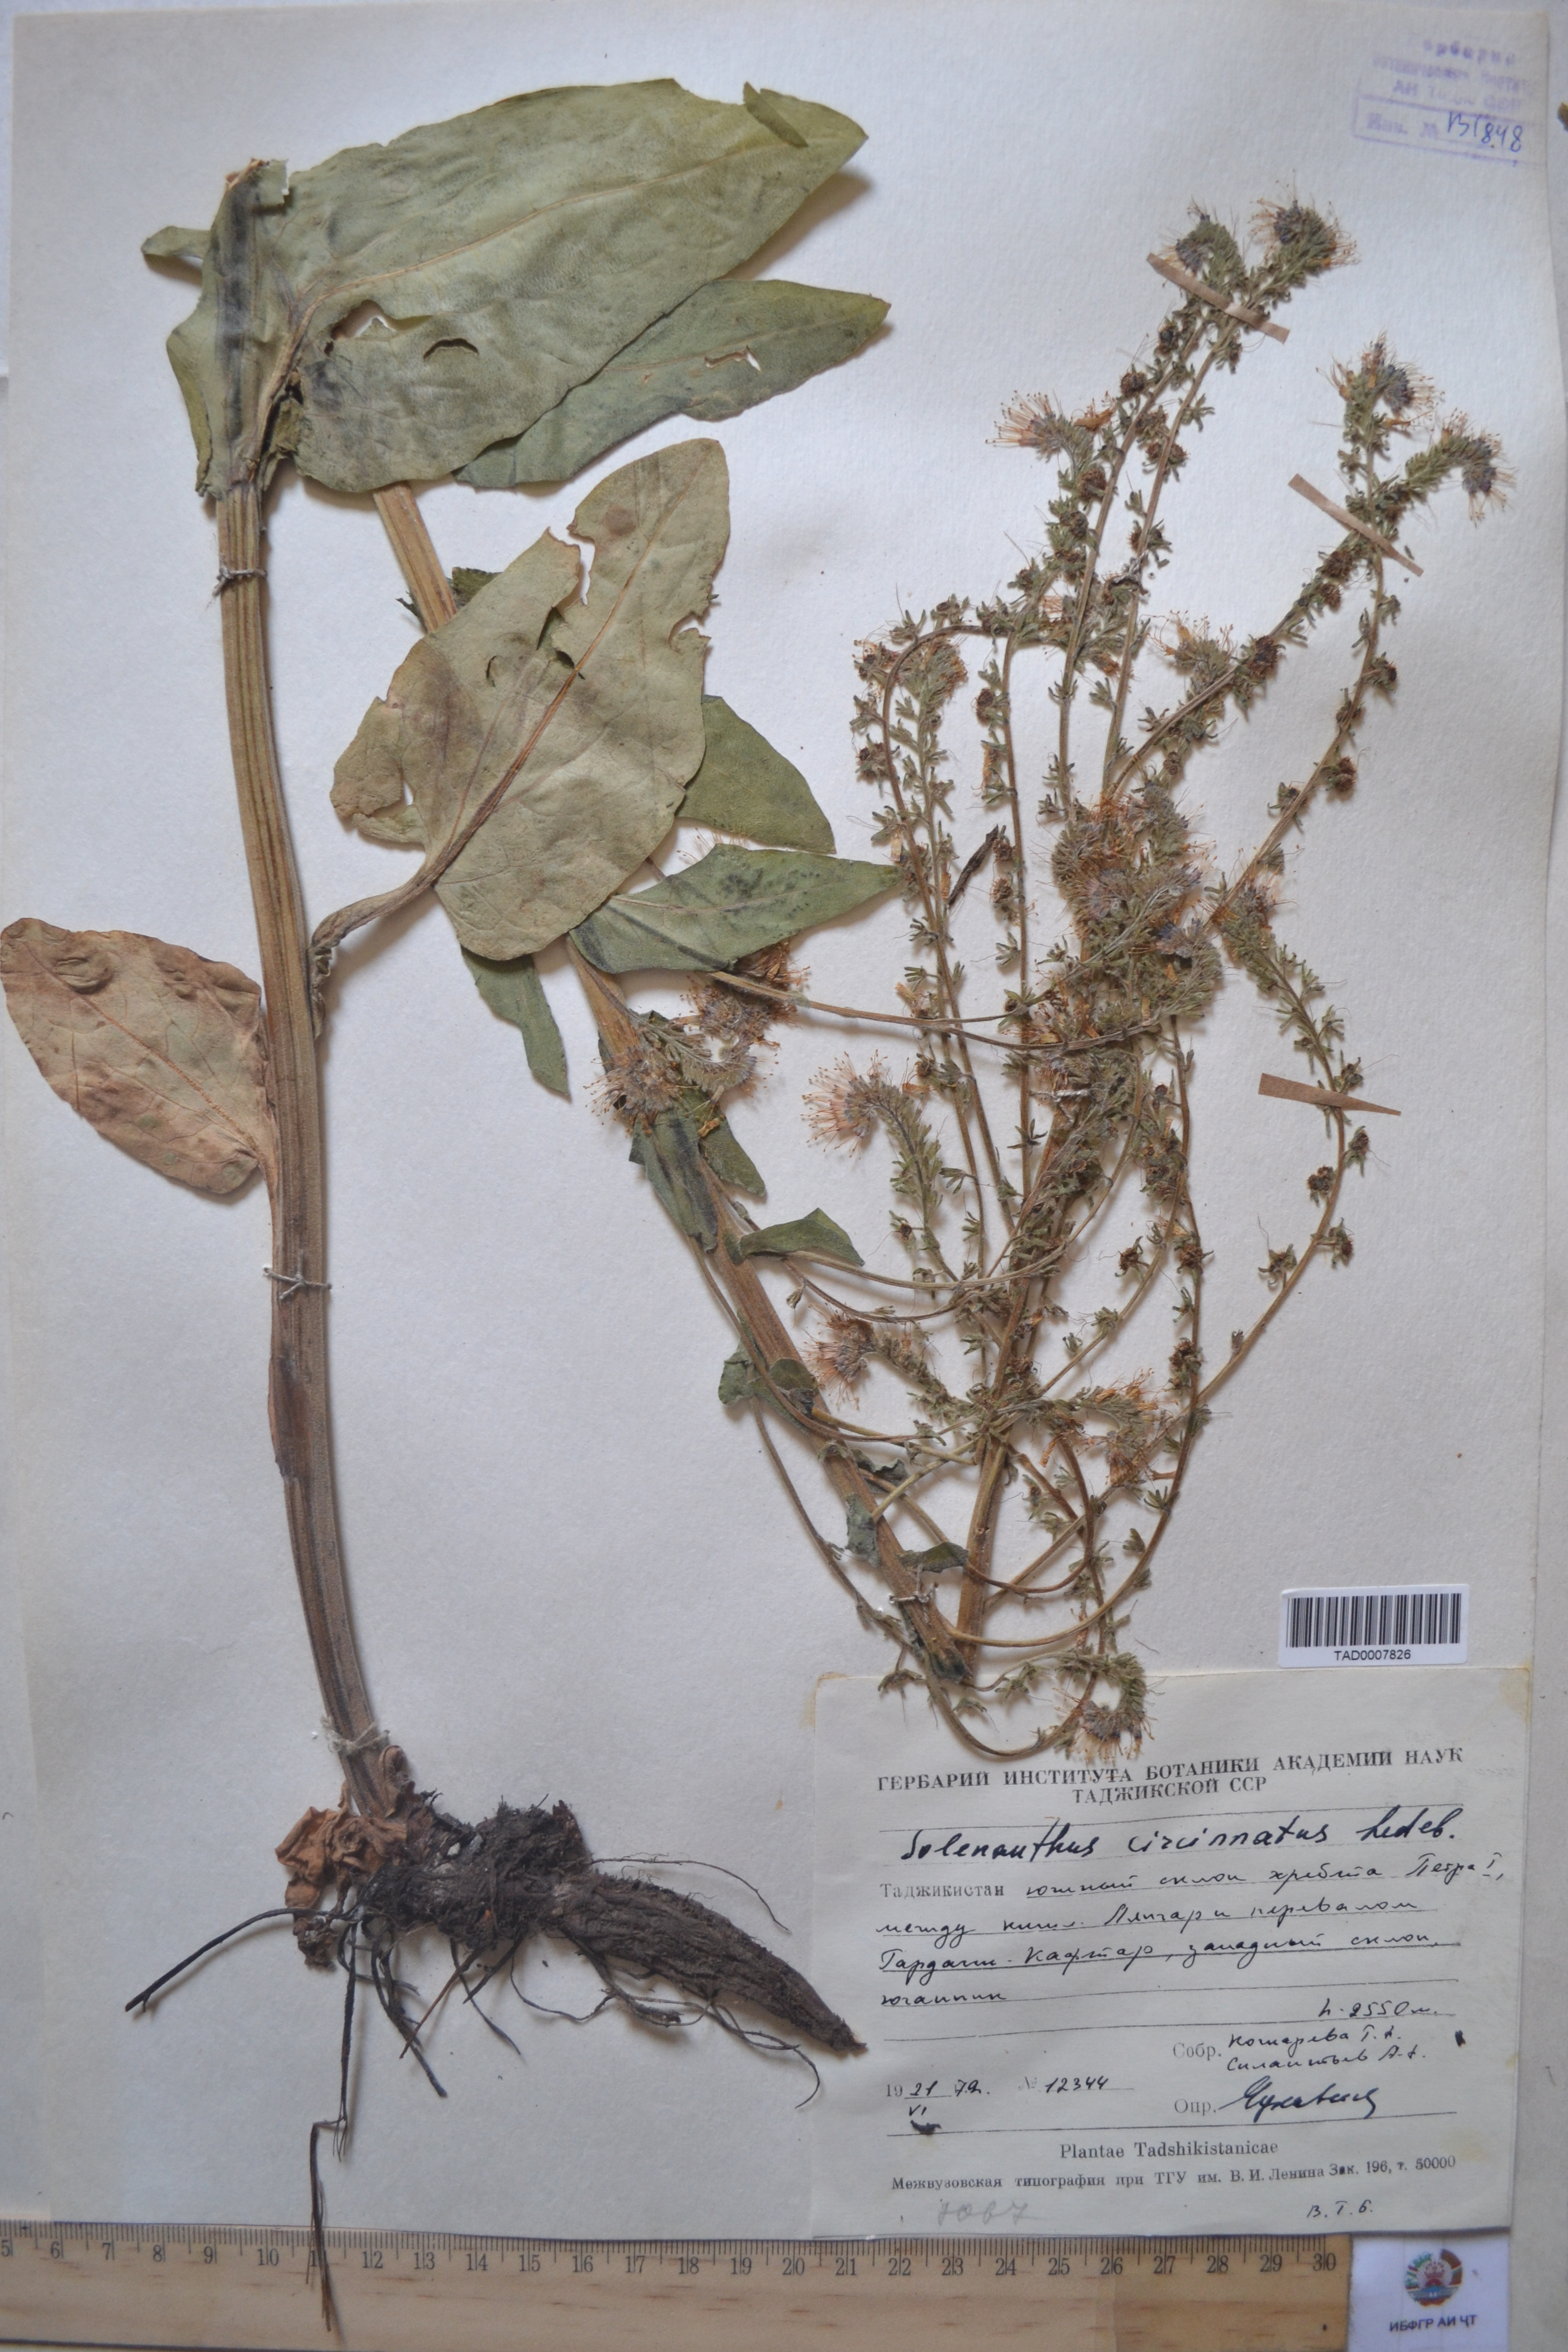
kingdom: Plantae
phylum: Tracheophyta
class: Magnoliopsida
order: Boraginales
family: Boraginaceae
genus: Solenanthus
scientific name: Solenanthus circinnatus
